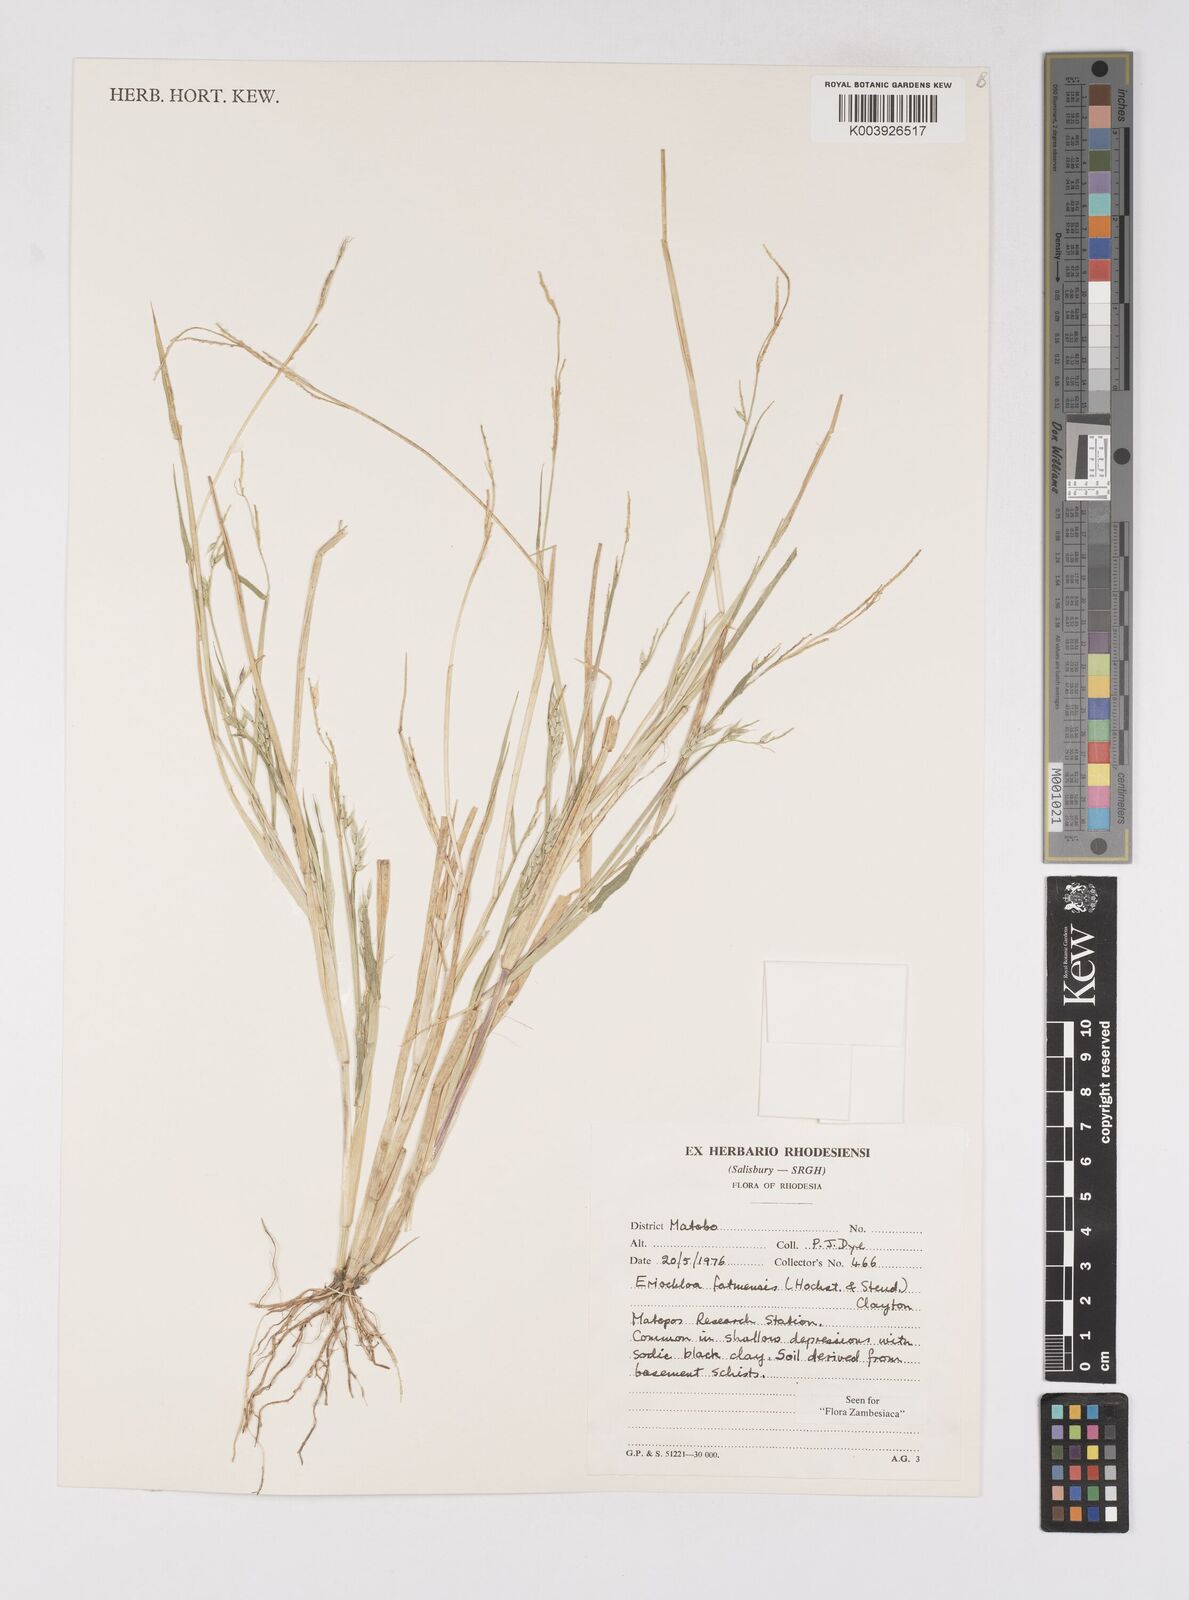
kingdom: Plantae
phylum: Tracheophyta
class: Liliopsida
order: Poales
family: Poaceae
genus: Eriochloa
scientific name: Eriochloa barbatus
